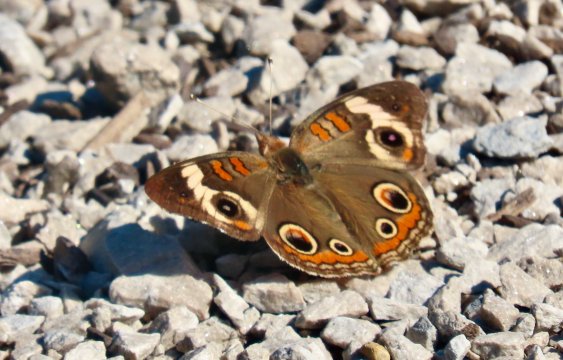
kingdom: Animalia
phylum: Arthropoda
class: Insecta
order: Lepidoptera
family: Nymphalidae
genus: Junonia
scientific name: Junonia coenia
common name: Common Buckeye
